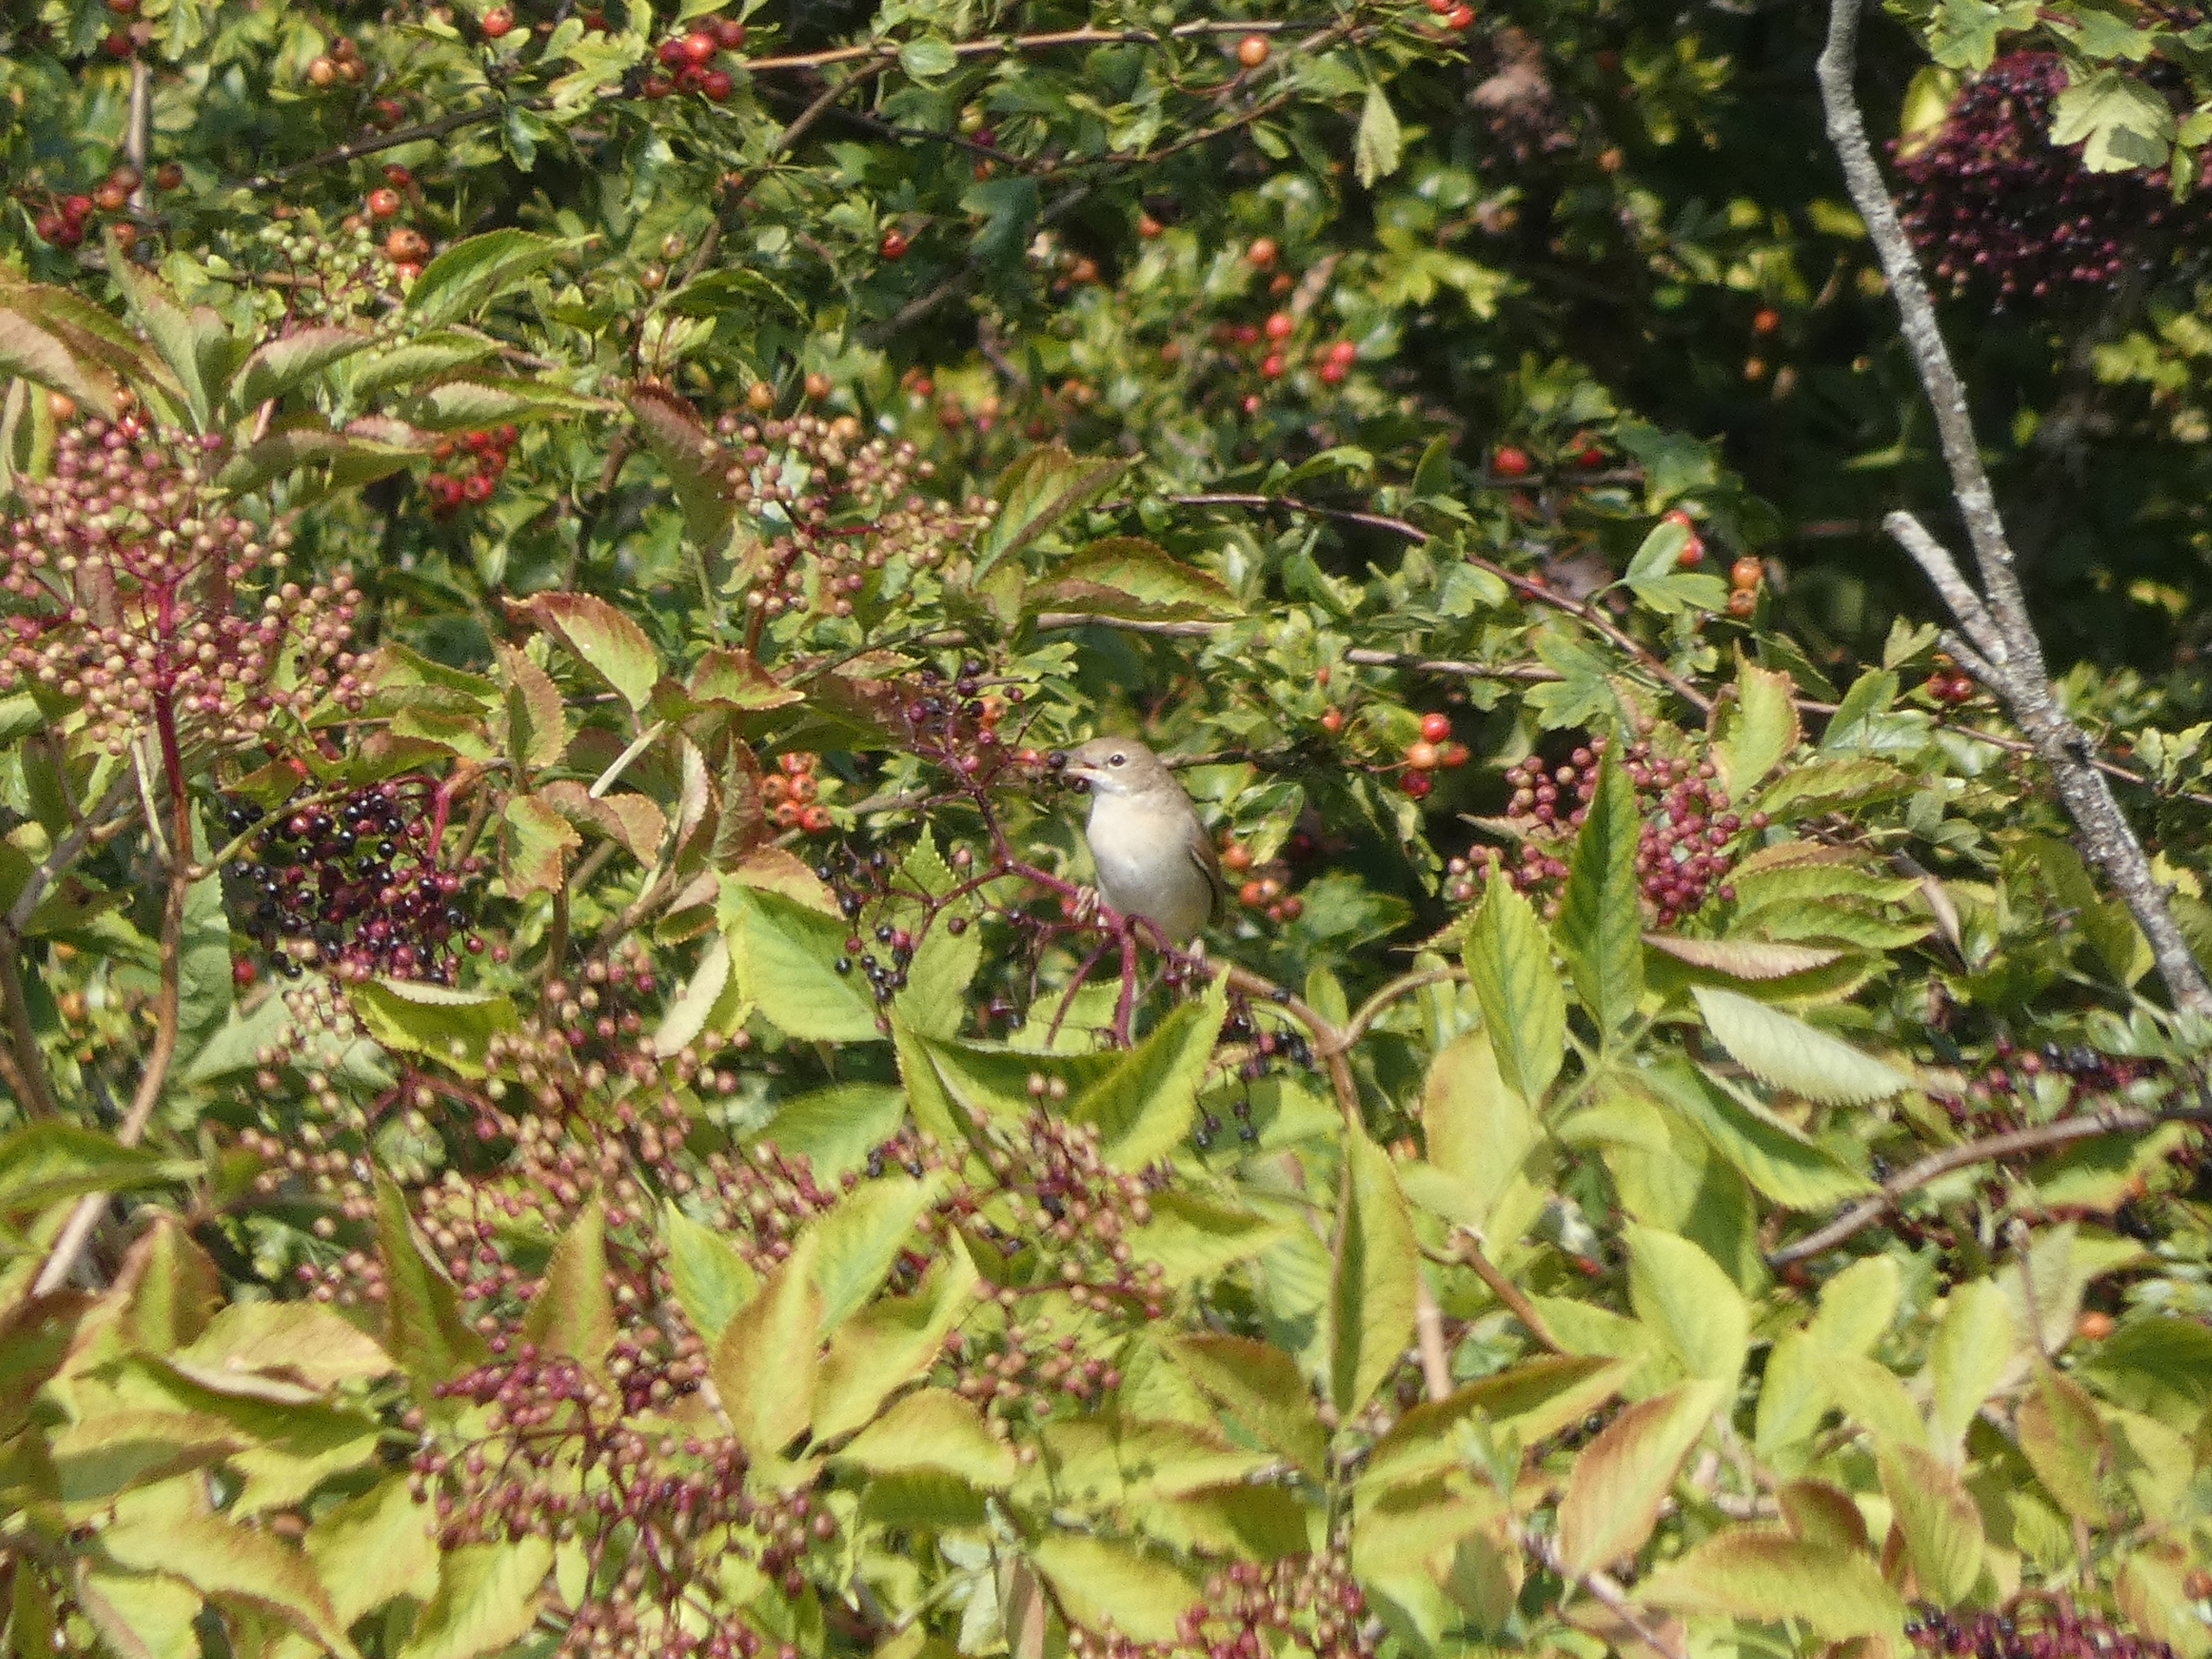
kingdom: Animalia
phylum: Chordata
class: Aves
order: Passeriformes
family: Sylviidae
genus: Sylvia
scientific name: Sylvia communis
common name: Tornsanger
